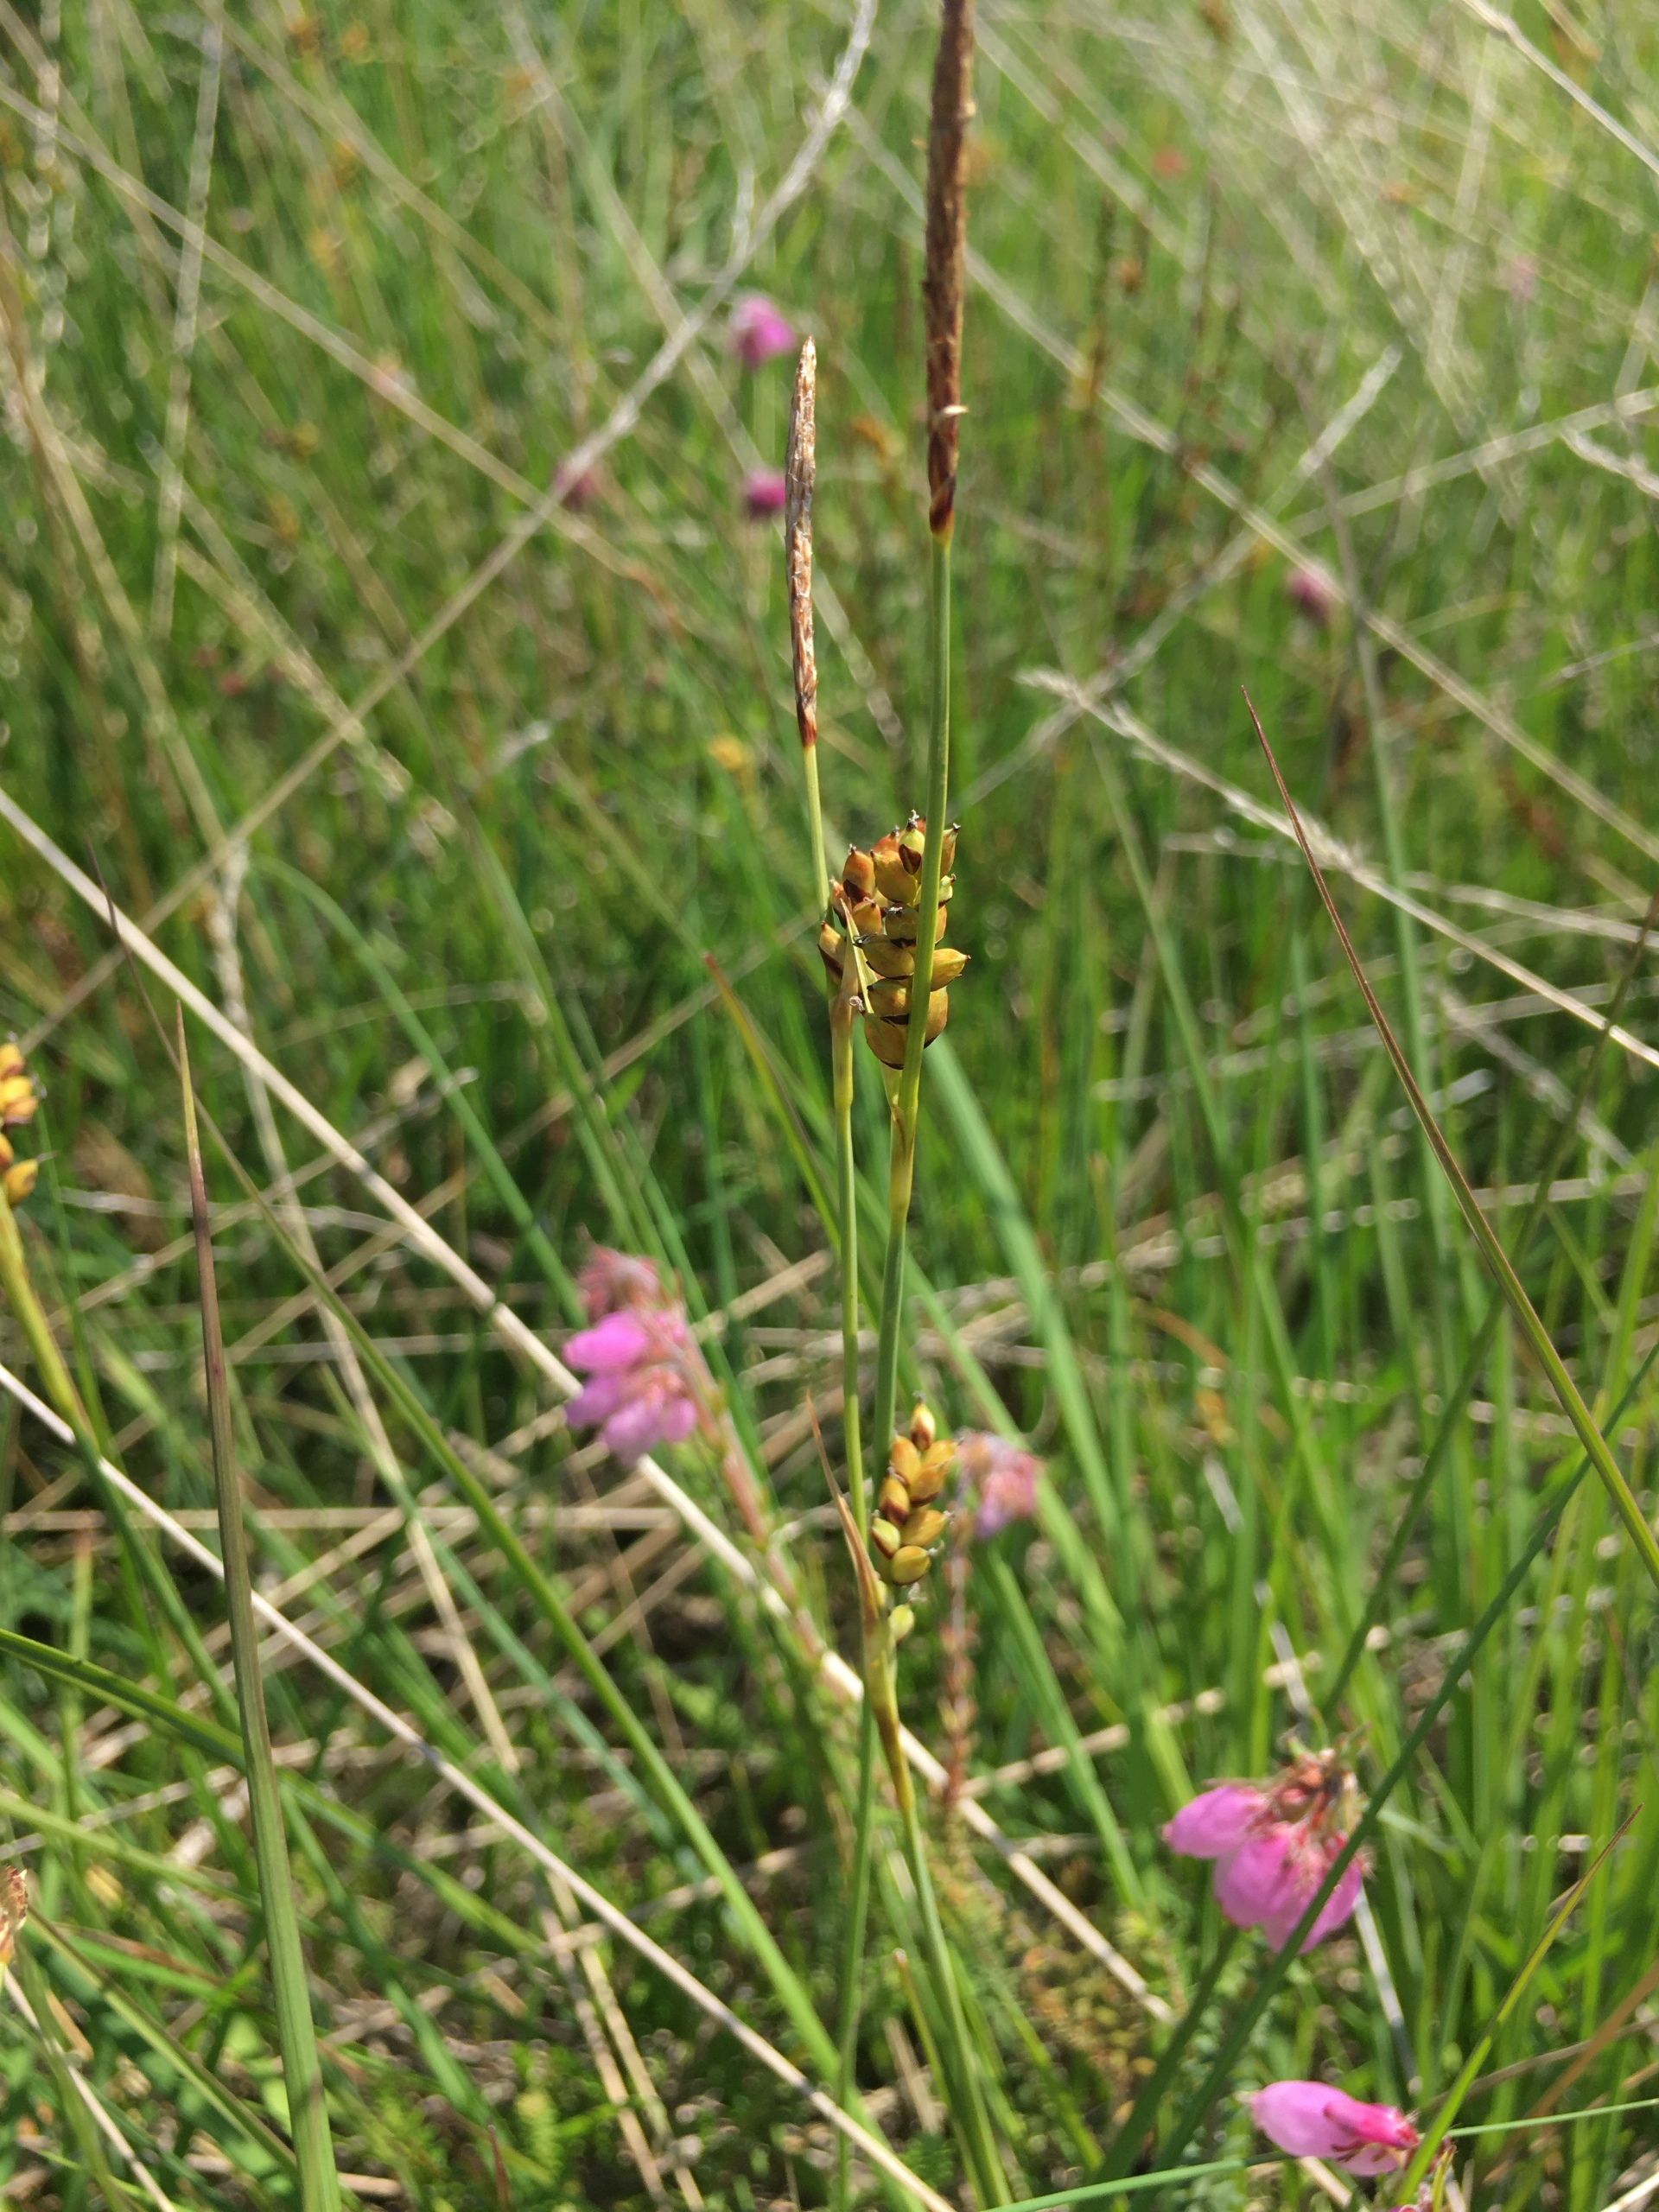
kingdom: Plantae
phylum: Tracheophyta
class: Liliopsida
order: Poales
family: Cyperaceae
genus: Carex
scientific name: Carex panicea
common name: Hirse-star
